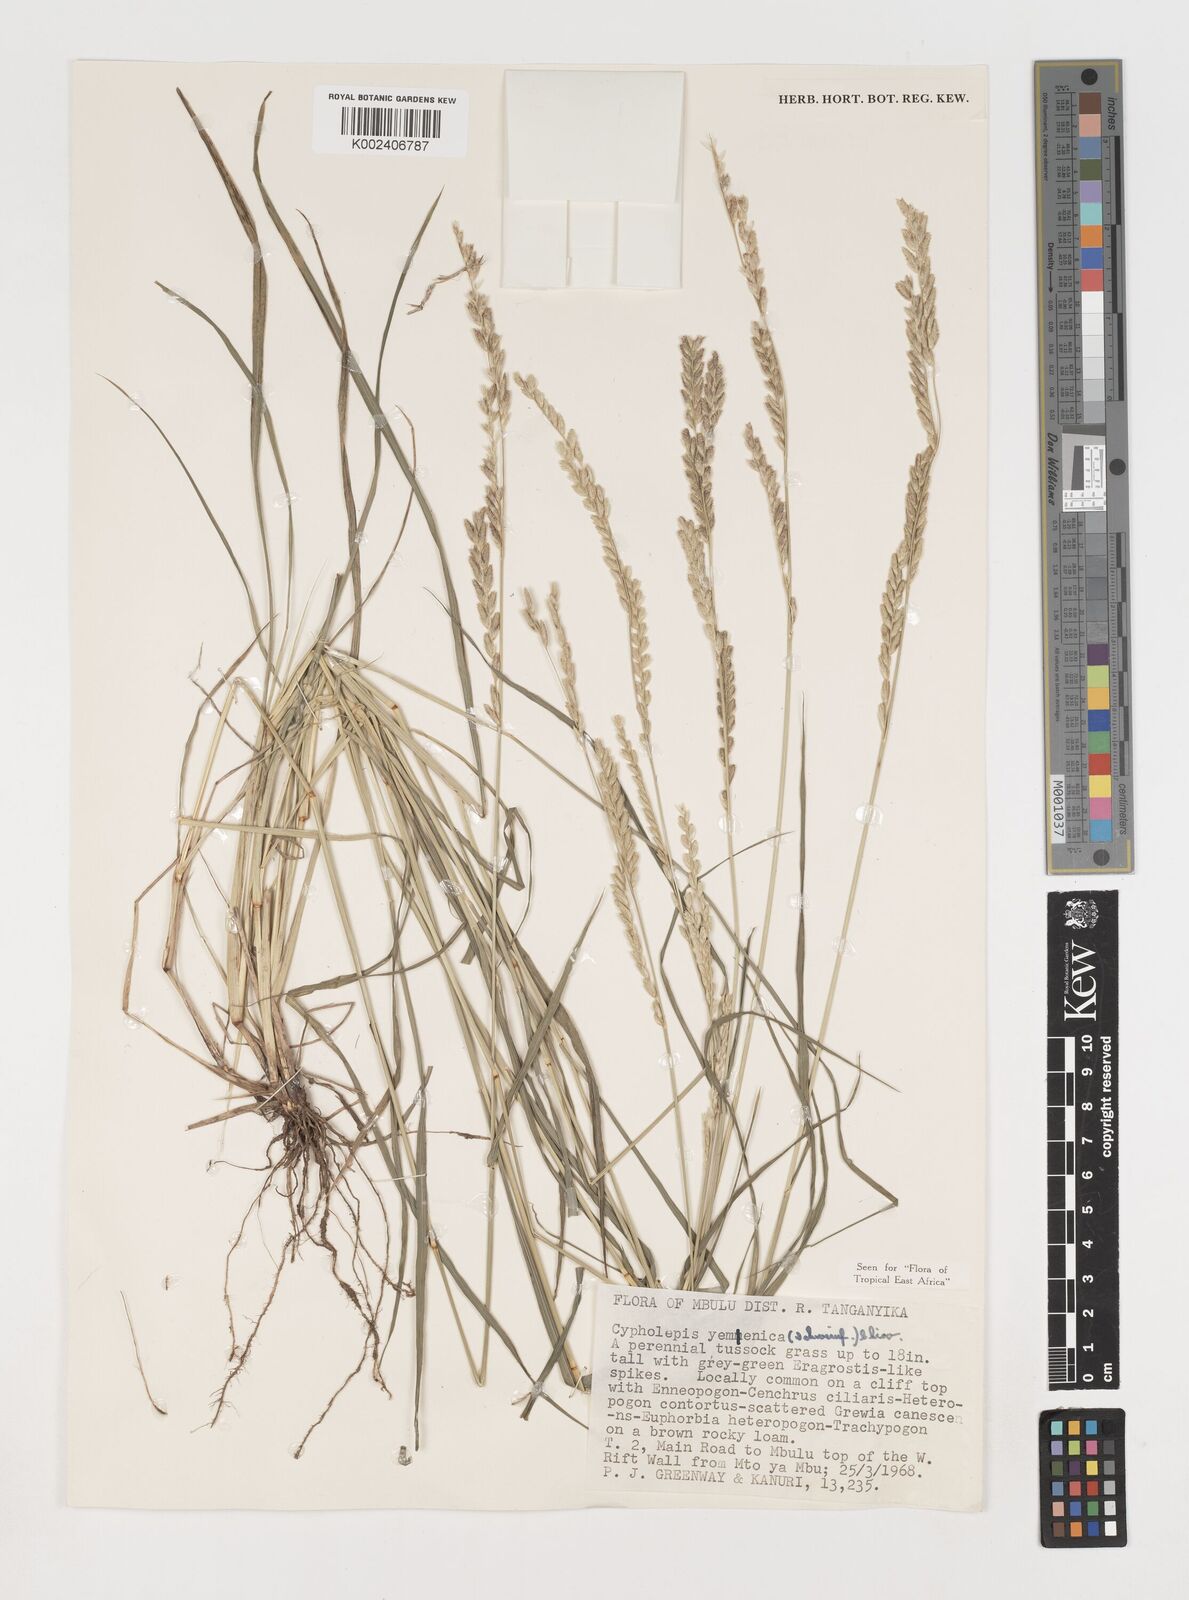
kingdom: Plantae
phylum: Tracheophyta
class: Liliopsida
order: Poales
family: Poaceae
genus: Disakisperma
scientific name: Disakisperma yemenicum
